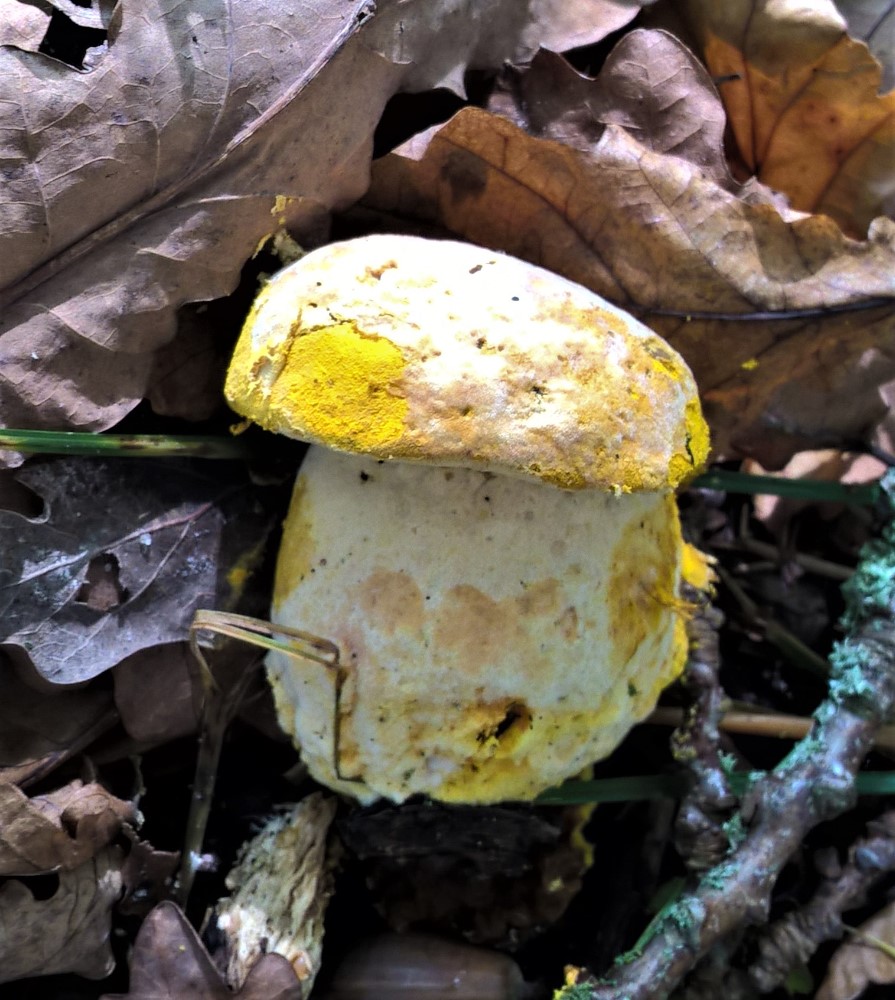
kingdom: Fungi
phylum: Ascomycota
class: Sordariomycetes
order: Hypocreales
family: Hypocreaceae
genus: Hypomyces
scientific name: Hypomyces chrysospermus
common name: gulskimmel-snylteskorpe
